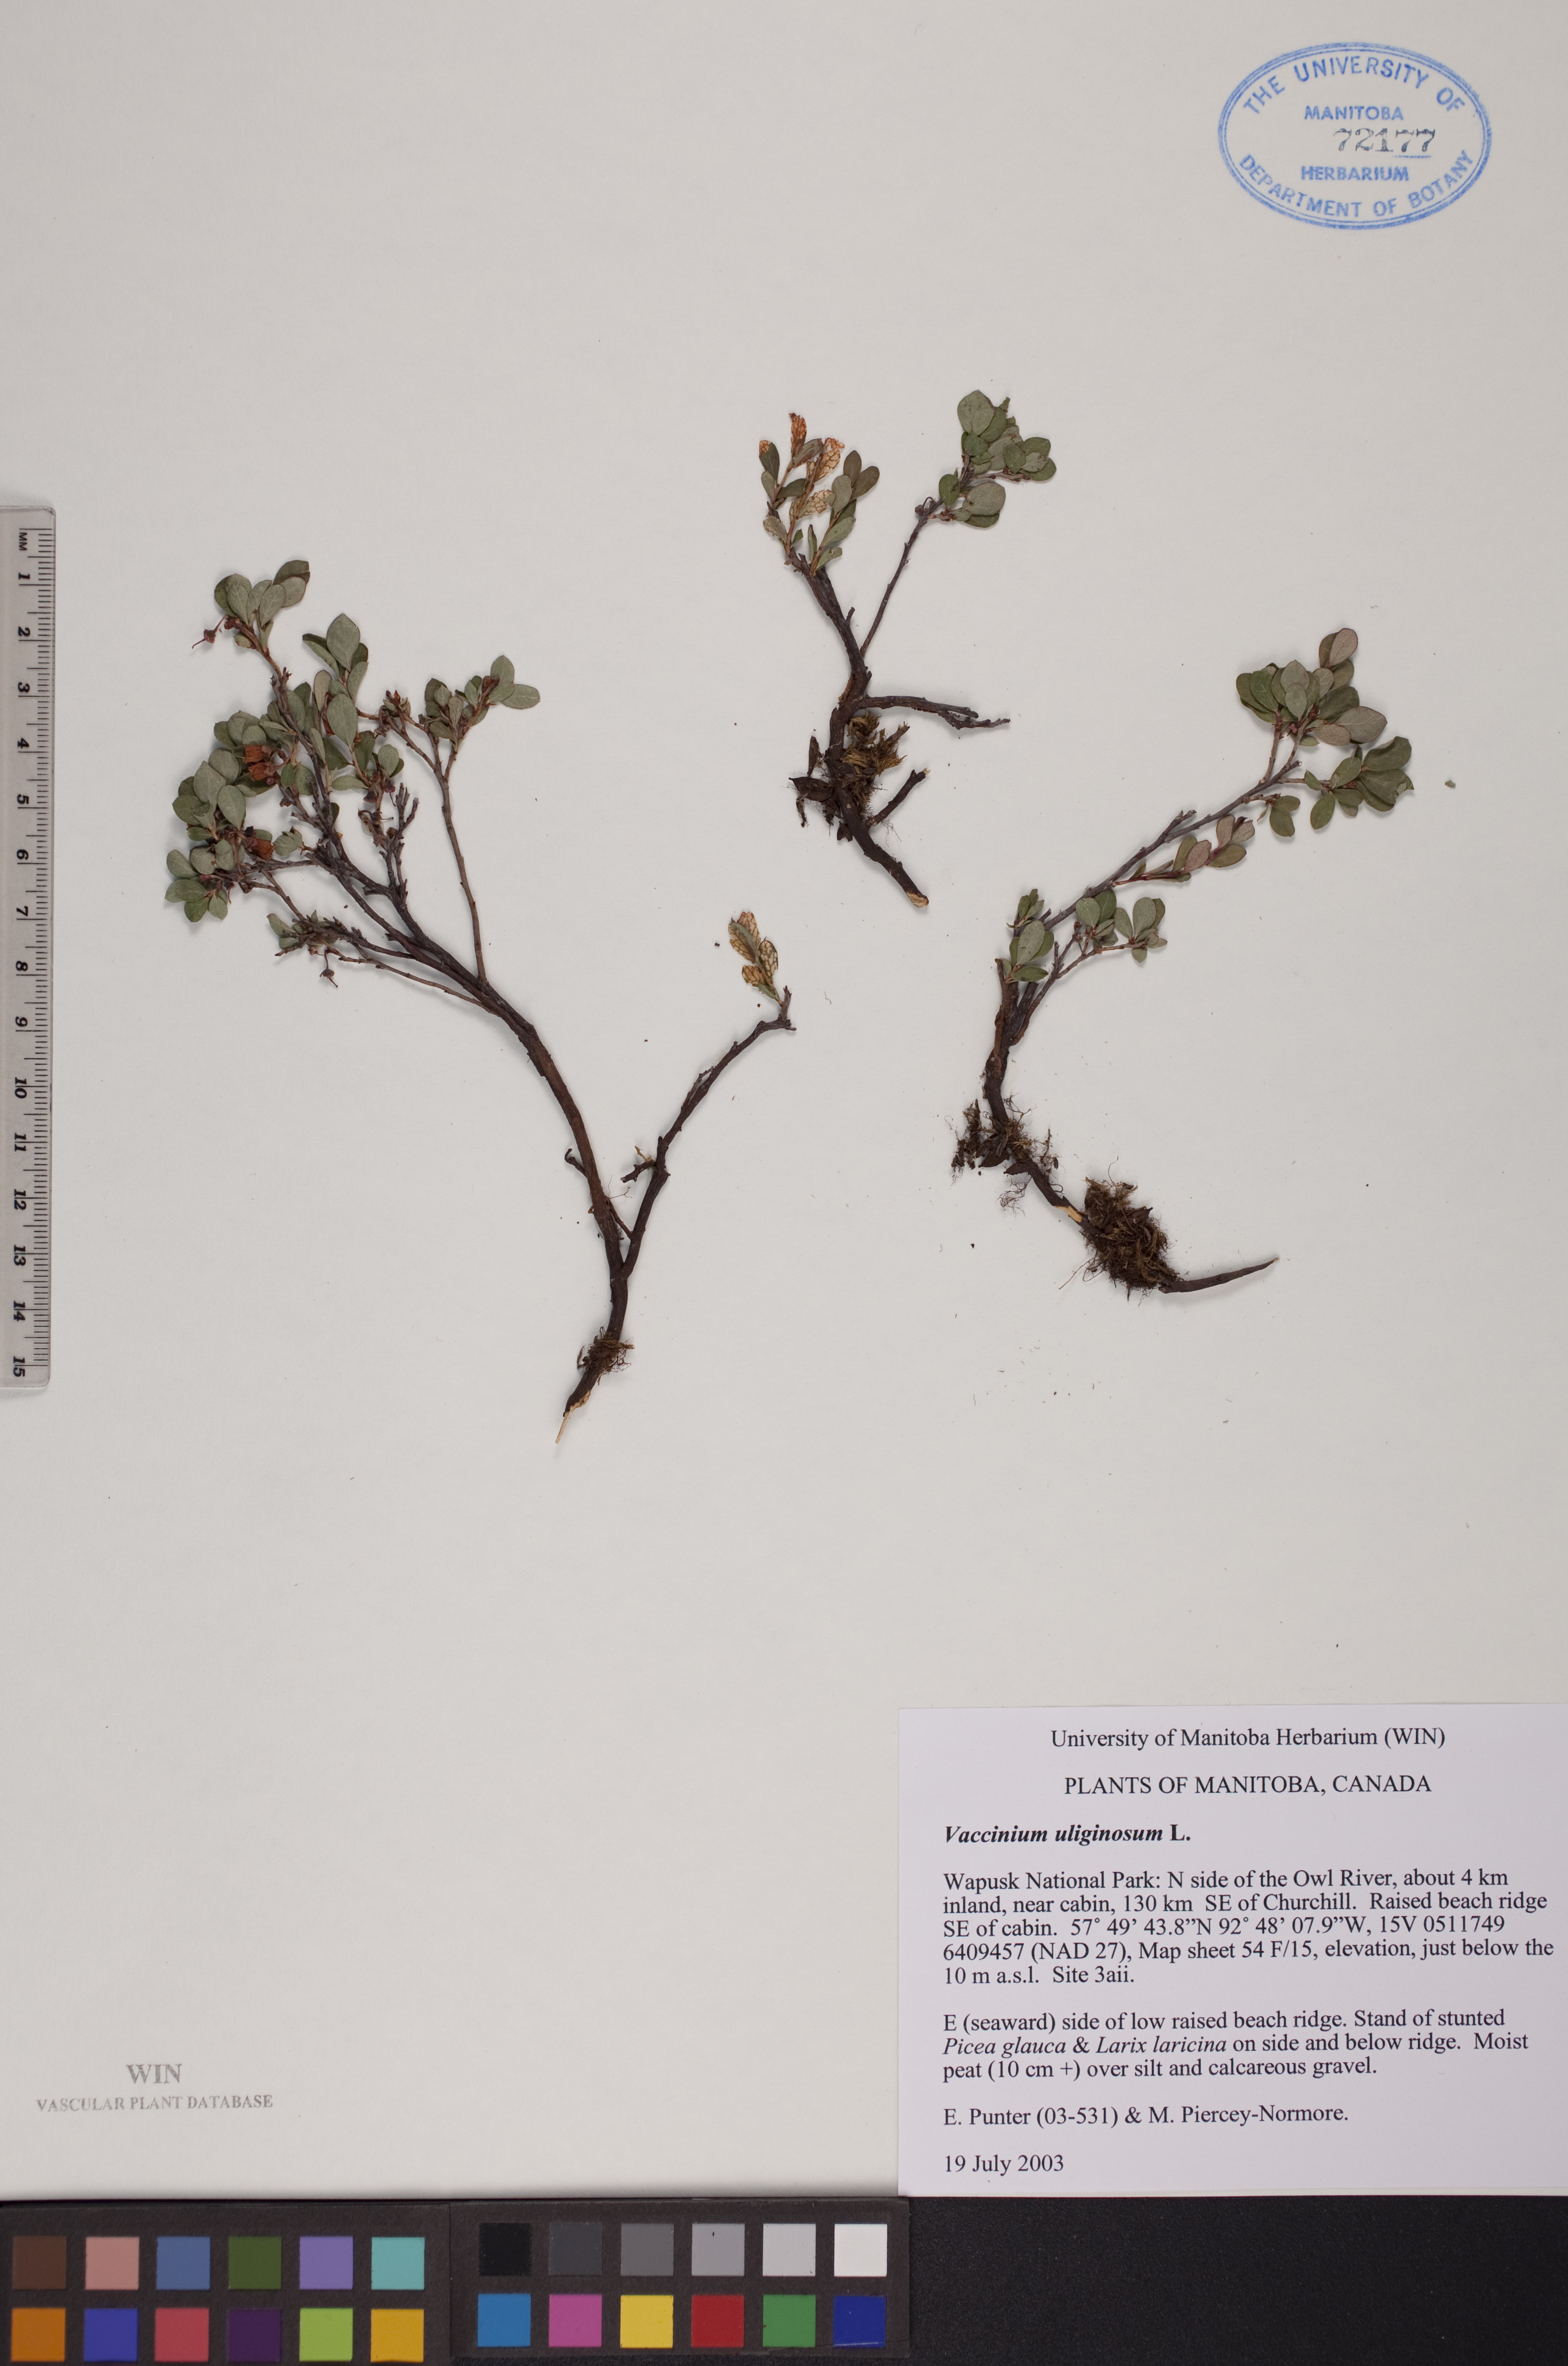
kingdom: Plantae
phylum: Tracheophyta
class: Magnoliopsida
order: Ericales
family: Ericaceae
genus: Vaccinium
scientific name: Vaccinium uliginosum
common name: Bog bilberry
